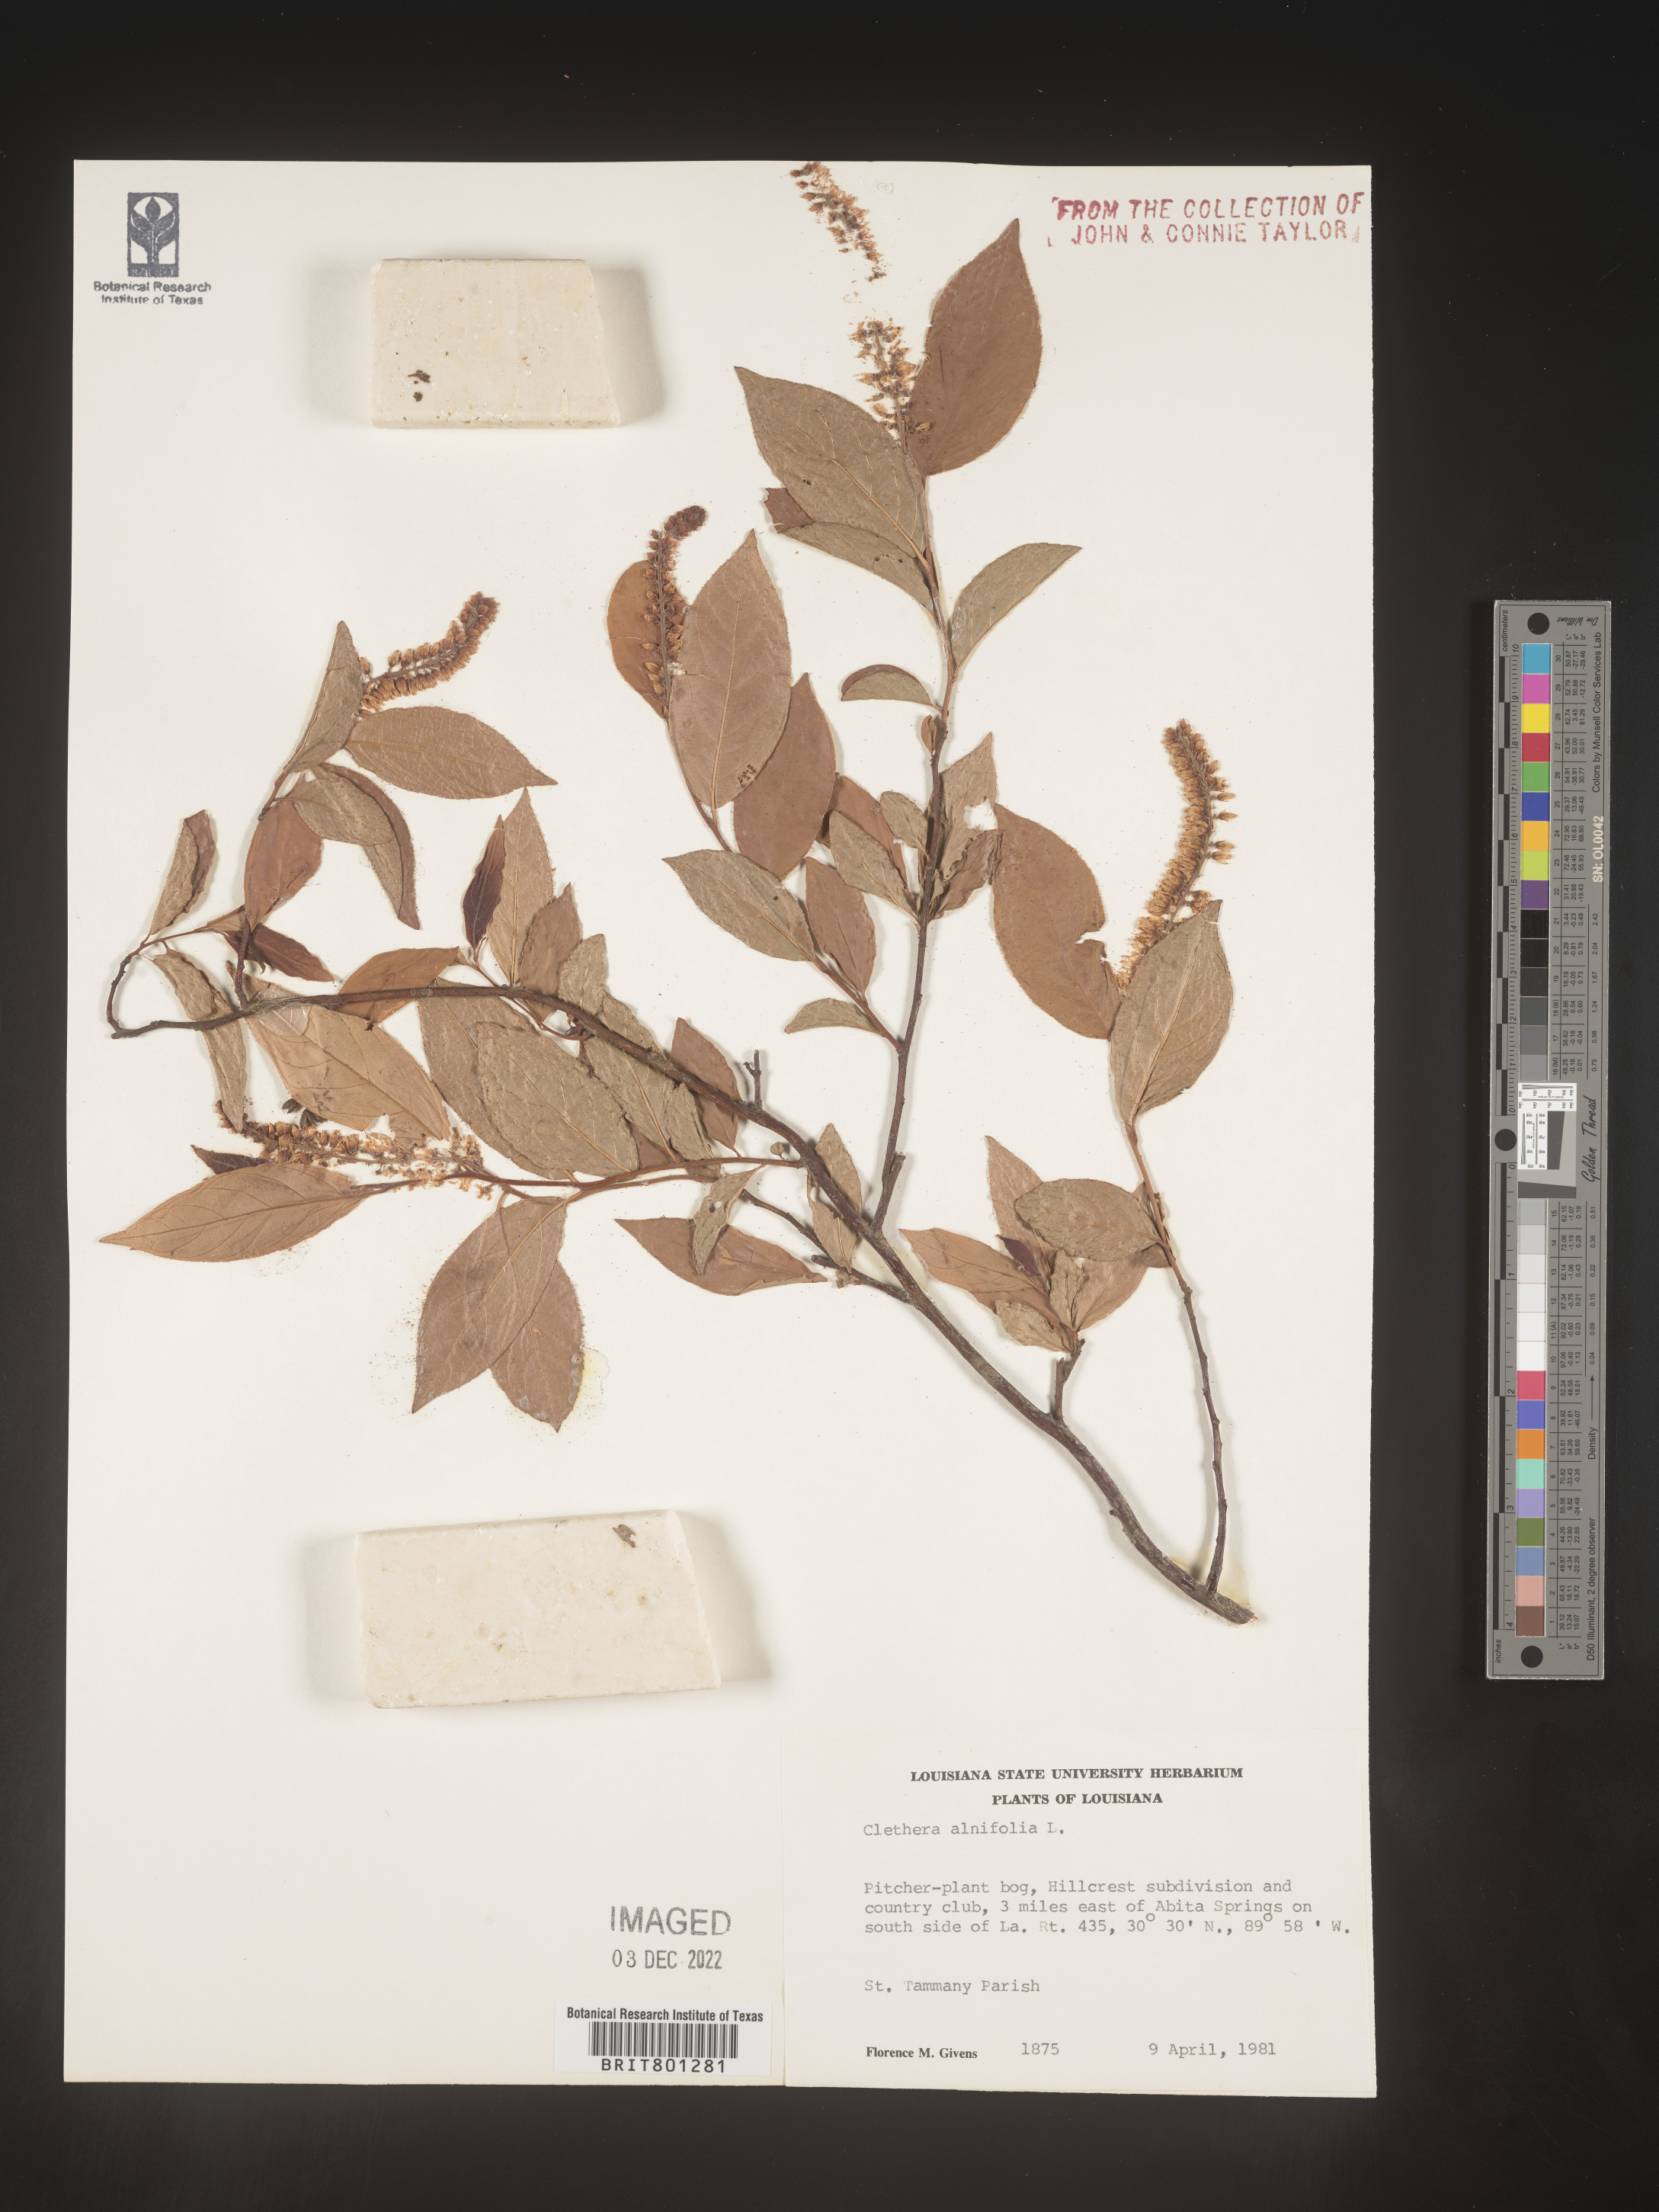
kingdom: Plantae
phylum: Tracheophyta
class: Magnoliopsida
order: Ericales
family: Clethraceae
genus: Clethra
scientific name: Clethra acuminata
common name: Mountain sweet pepperbush
